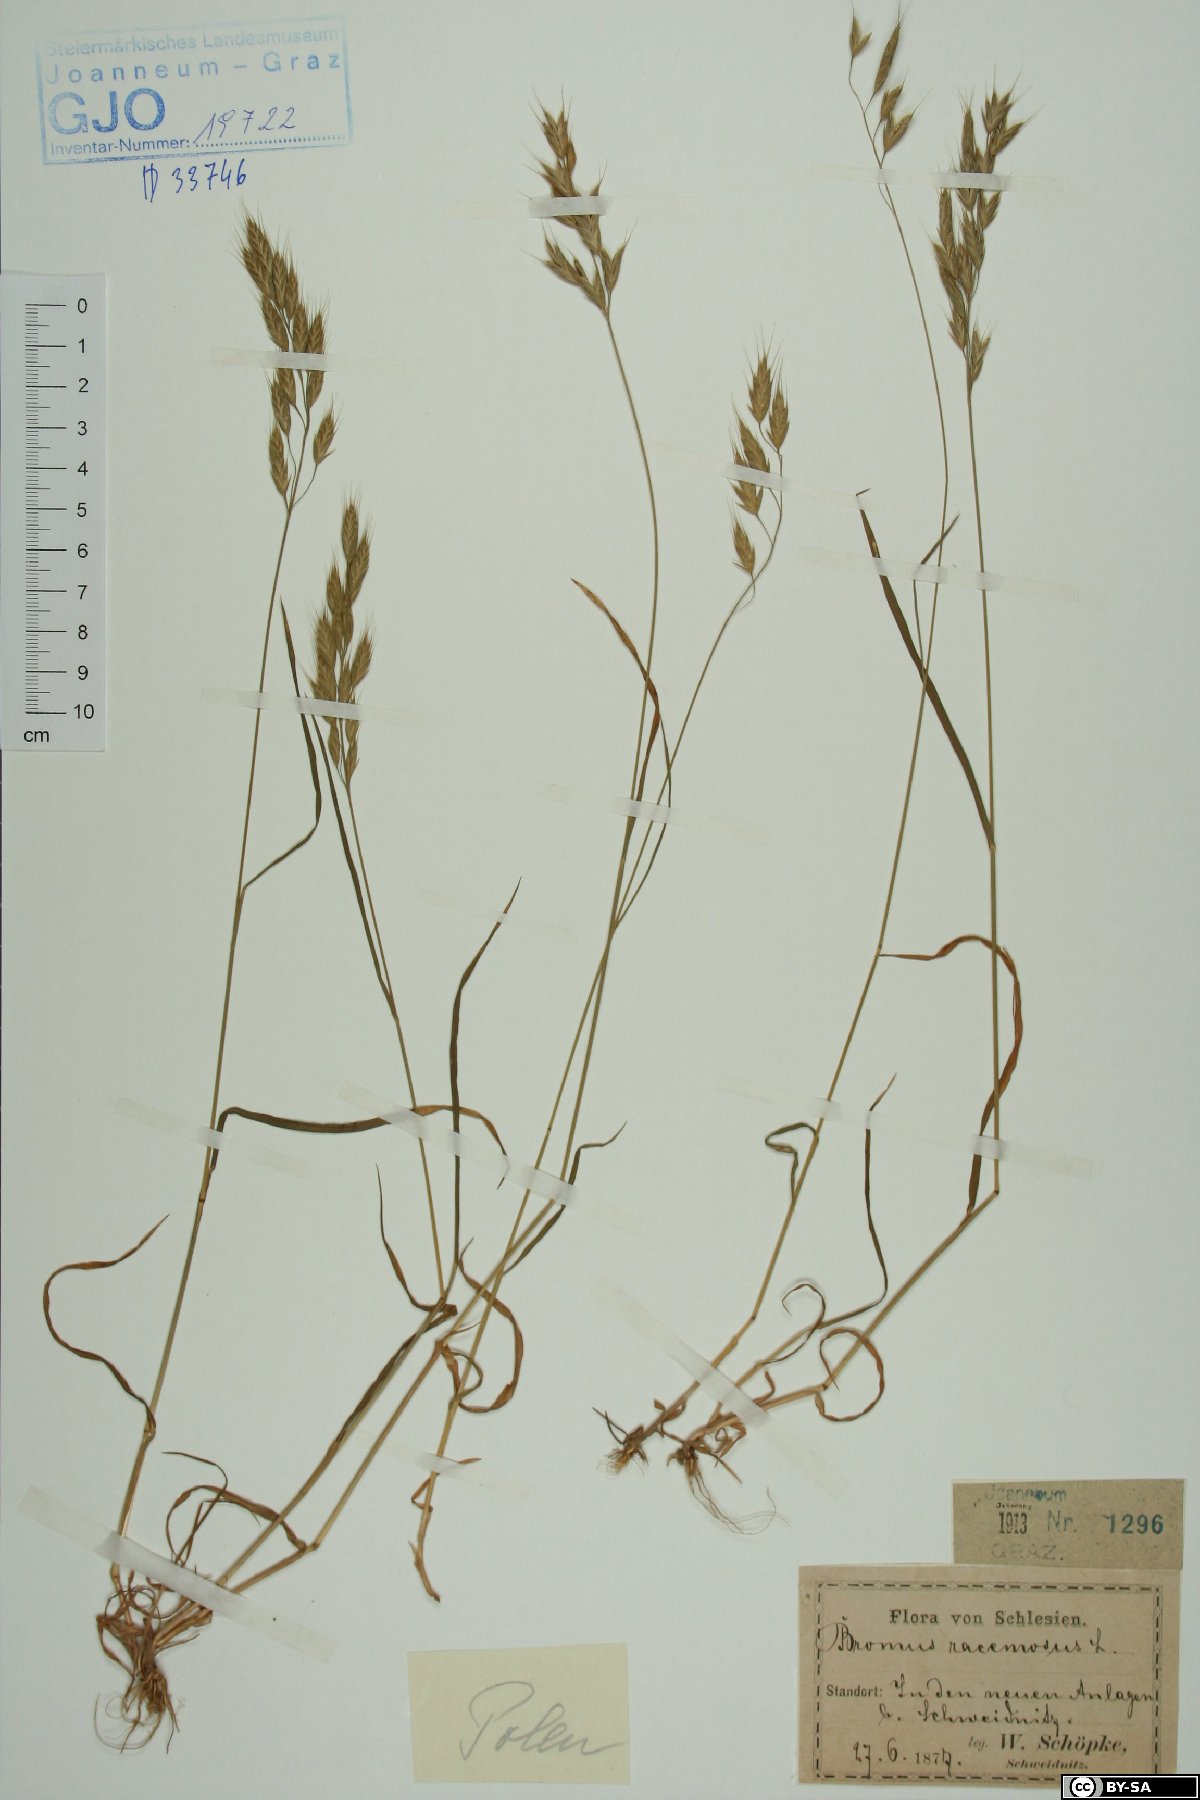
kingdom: Plantae
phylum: Tracheophyta
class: Liliopsida
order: Poales
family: Poaceae
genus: Bromus
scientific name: Bromus racemosus
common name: Bald brome
